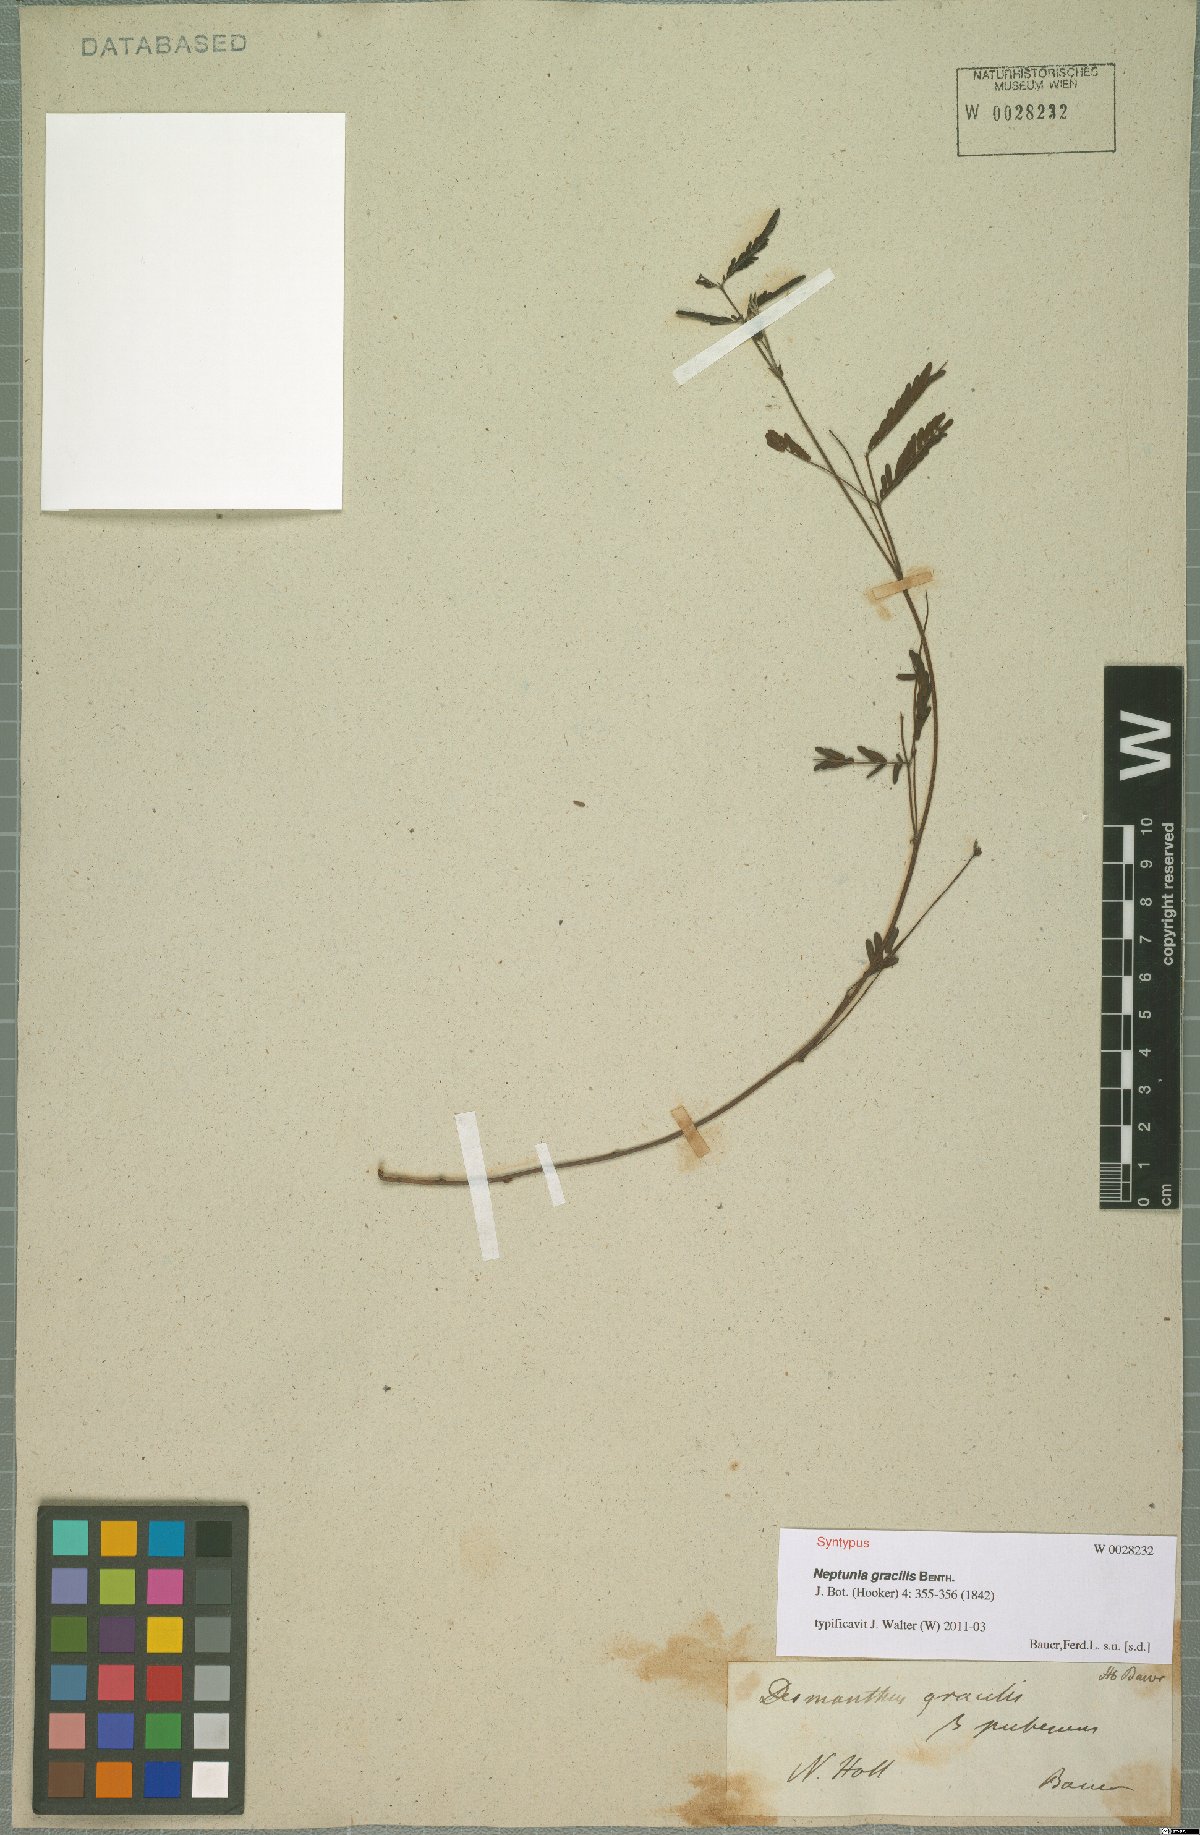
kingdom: Plantae
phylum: Tracheophyta
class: Magnoliopsida
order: Fabales
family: Fabaceae
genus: Neptunia
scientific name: Neptunia gracilis
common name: Sensitive-plant
